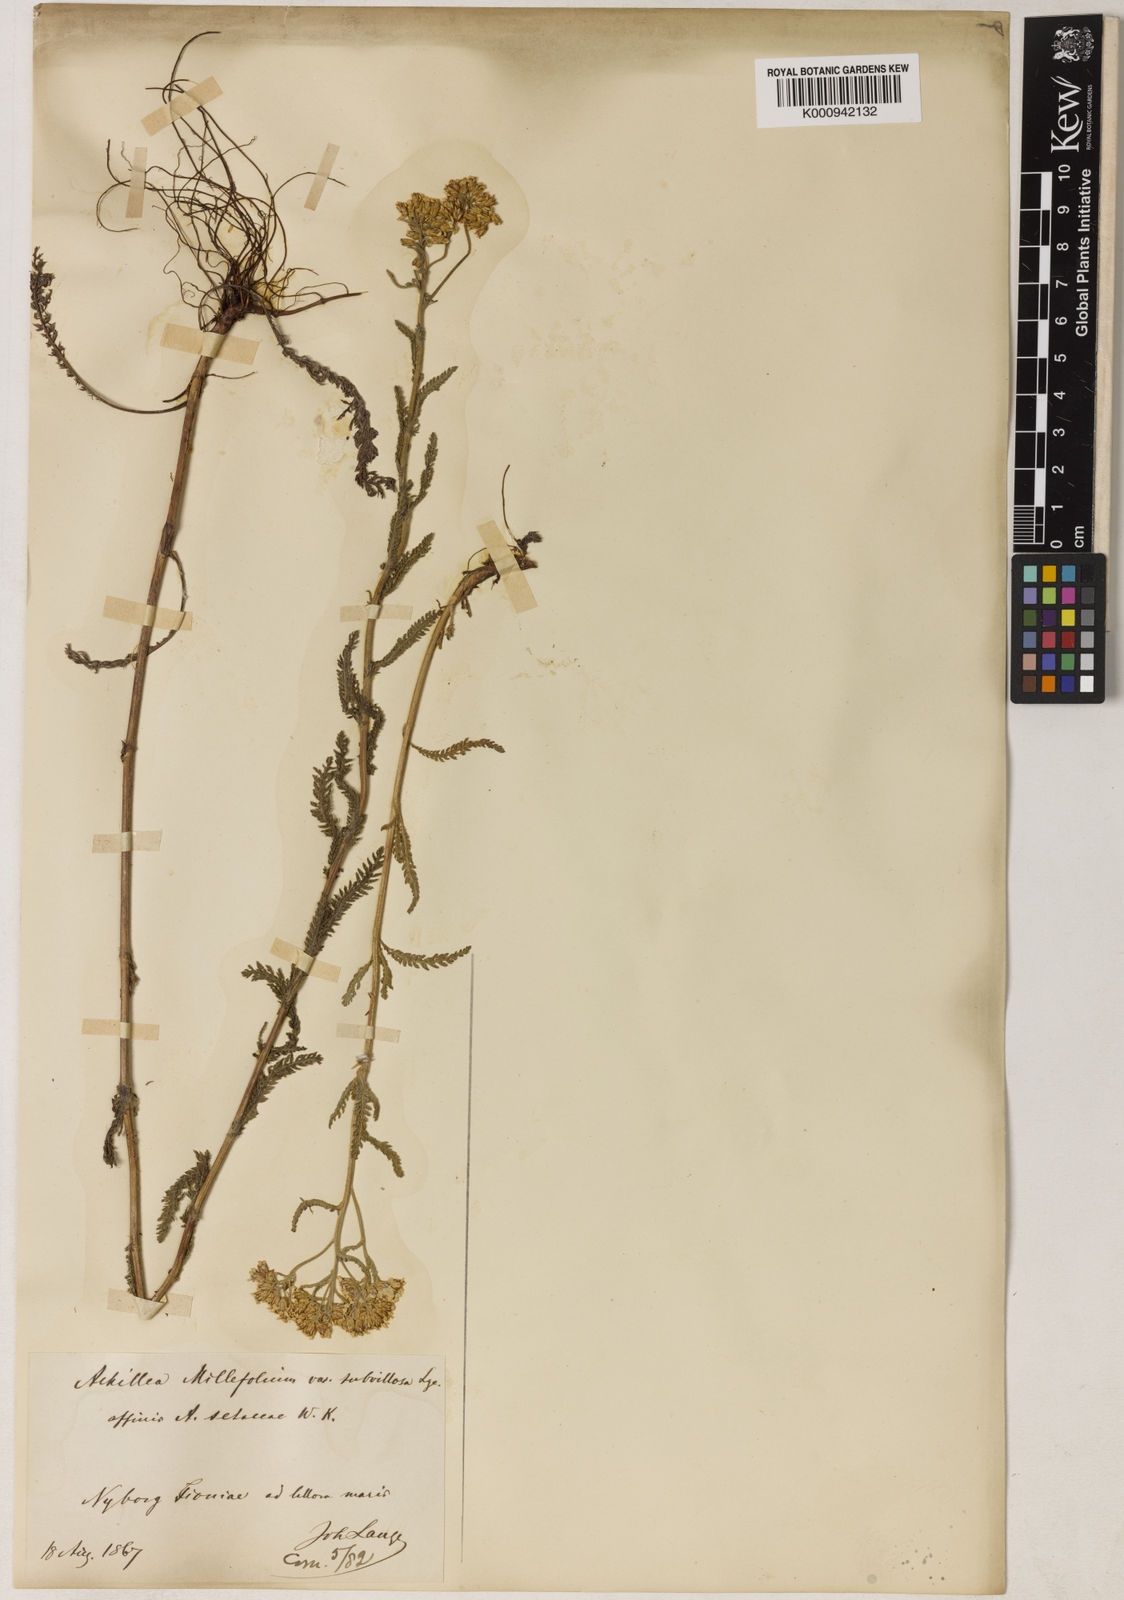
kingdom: Plantae
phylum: Tracheophyta
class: Magnoliopsida
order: Asterales
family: Asteraceae
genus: Achillea
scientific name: Achillea millefolium
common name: Yarrow
